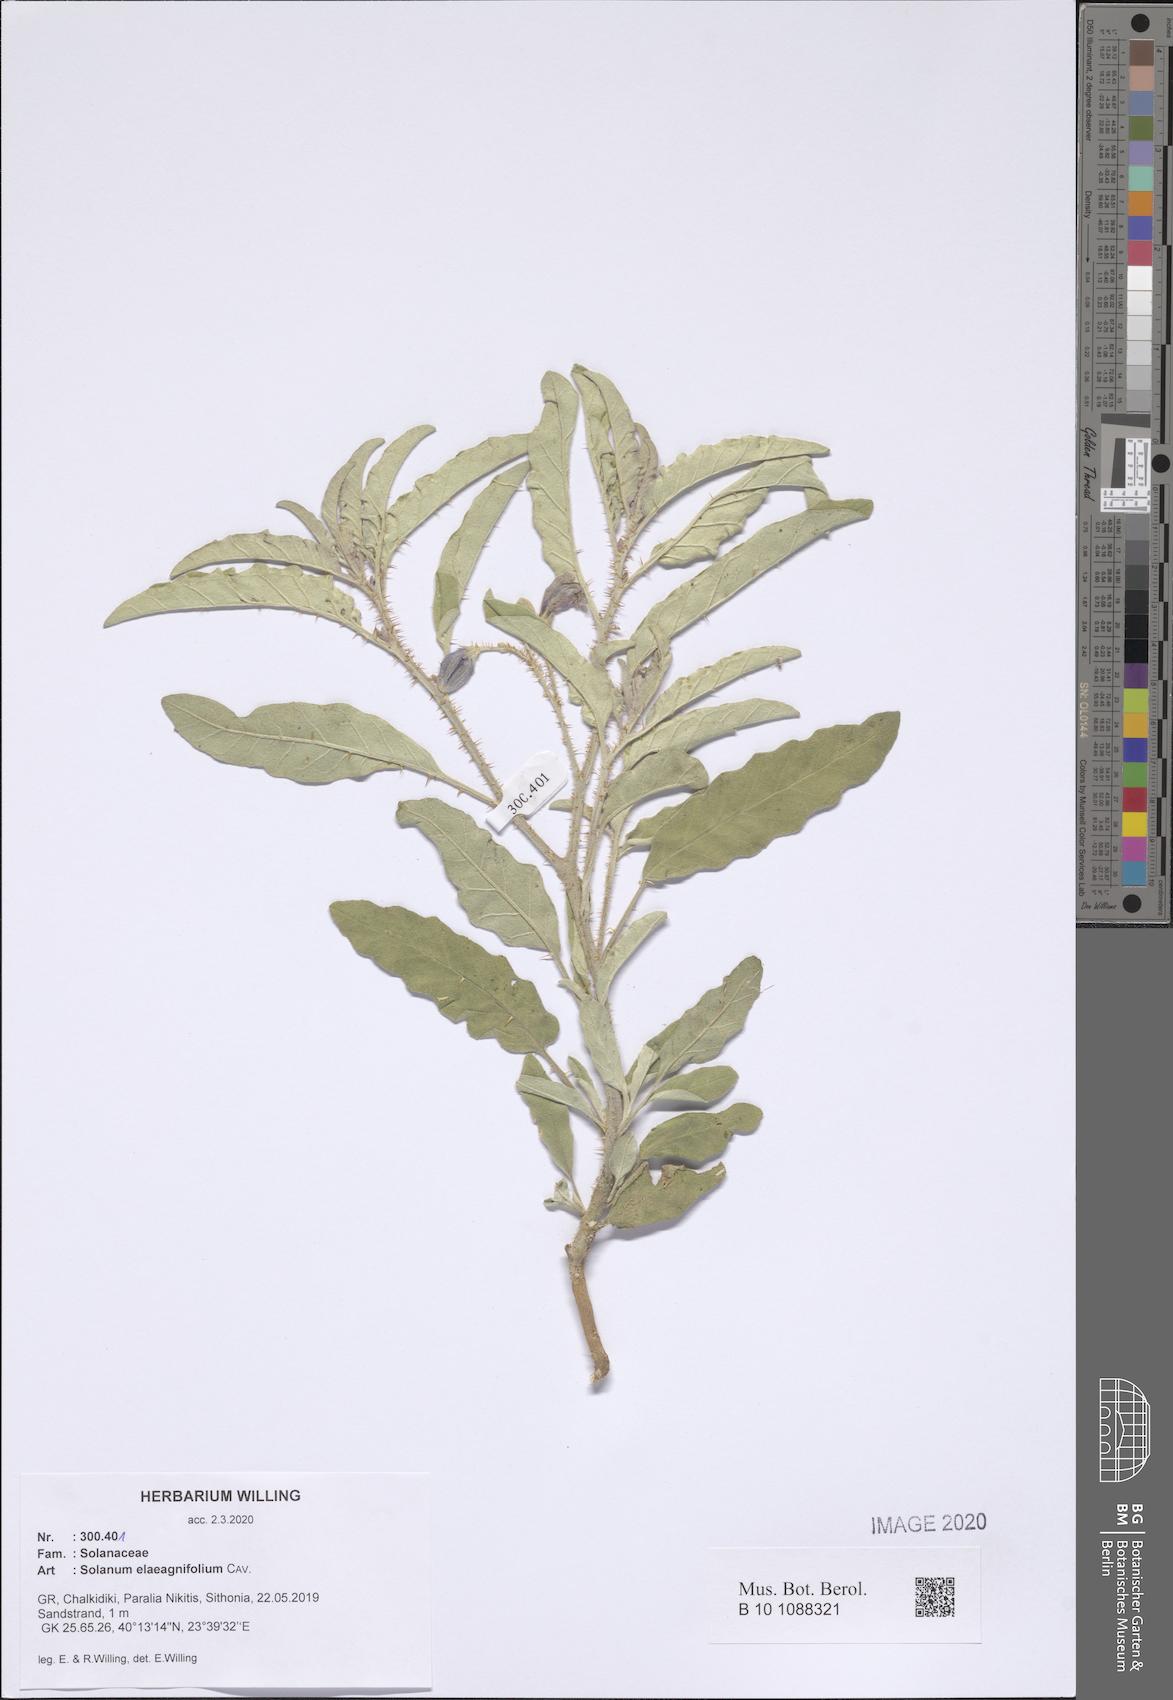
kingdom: Plantae
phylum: Tracheophyta
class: Magnoliopsida
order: Solanales
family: Solanaceae
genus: Solanum
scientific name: Solanum elaeagnifolium
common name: Silverleaf nightshade
